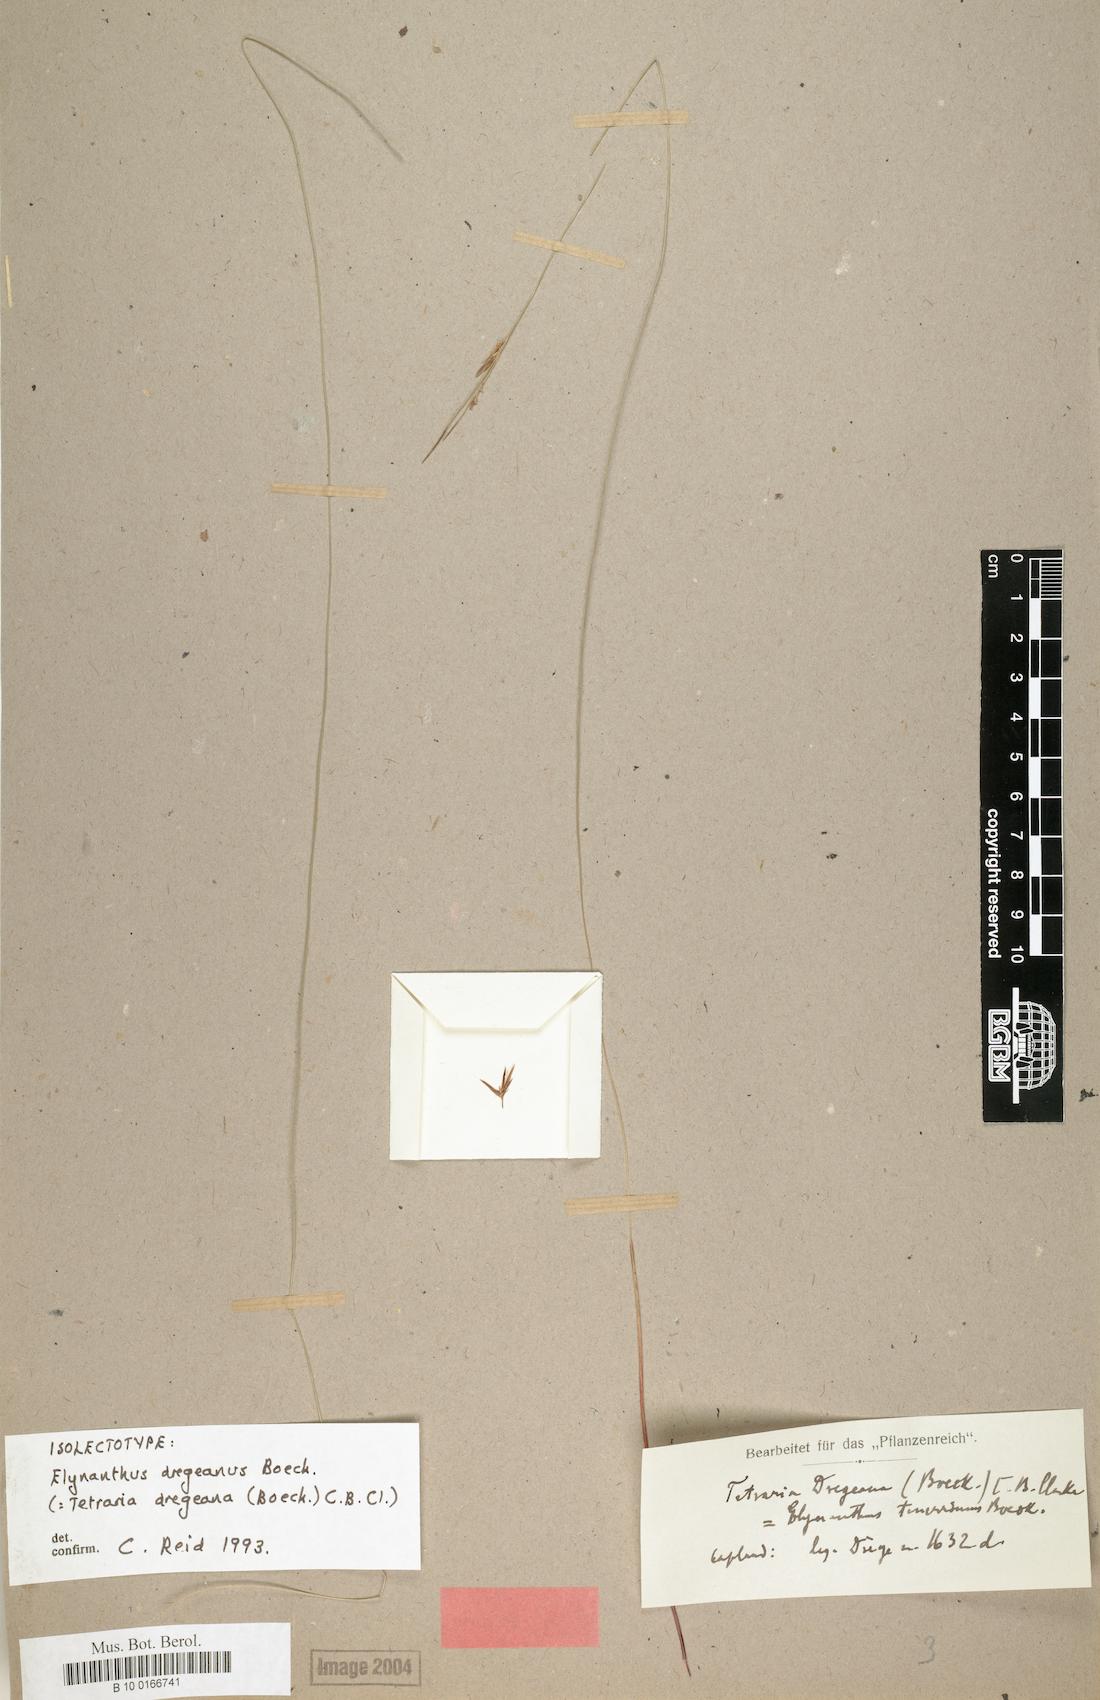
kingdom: Plantae
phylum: Tracheophyta
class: Liliopsida
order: Poales
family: Cyperaceae
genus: Schoenus
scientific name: Schoenus dregeanus
